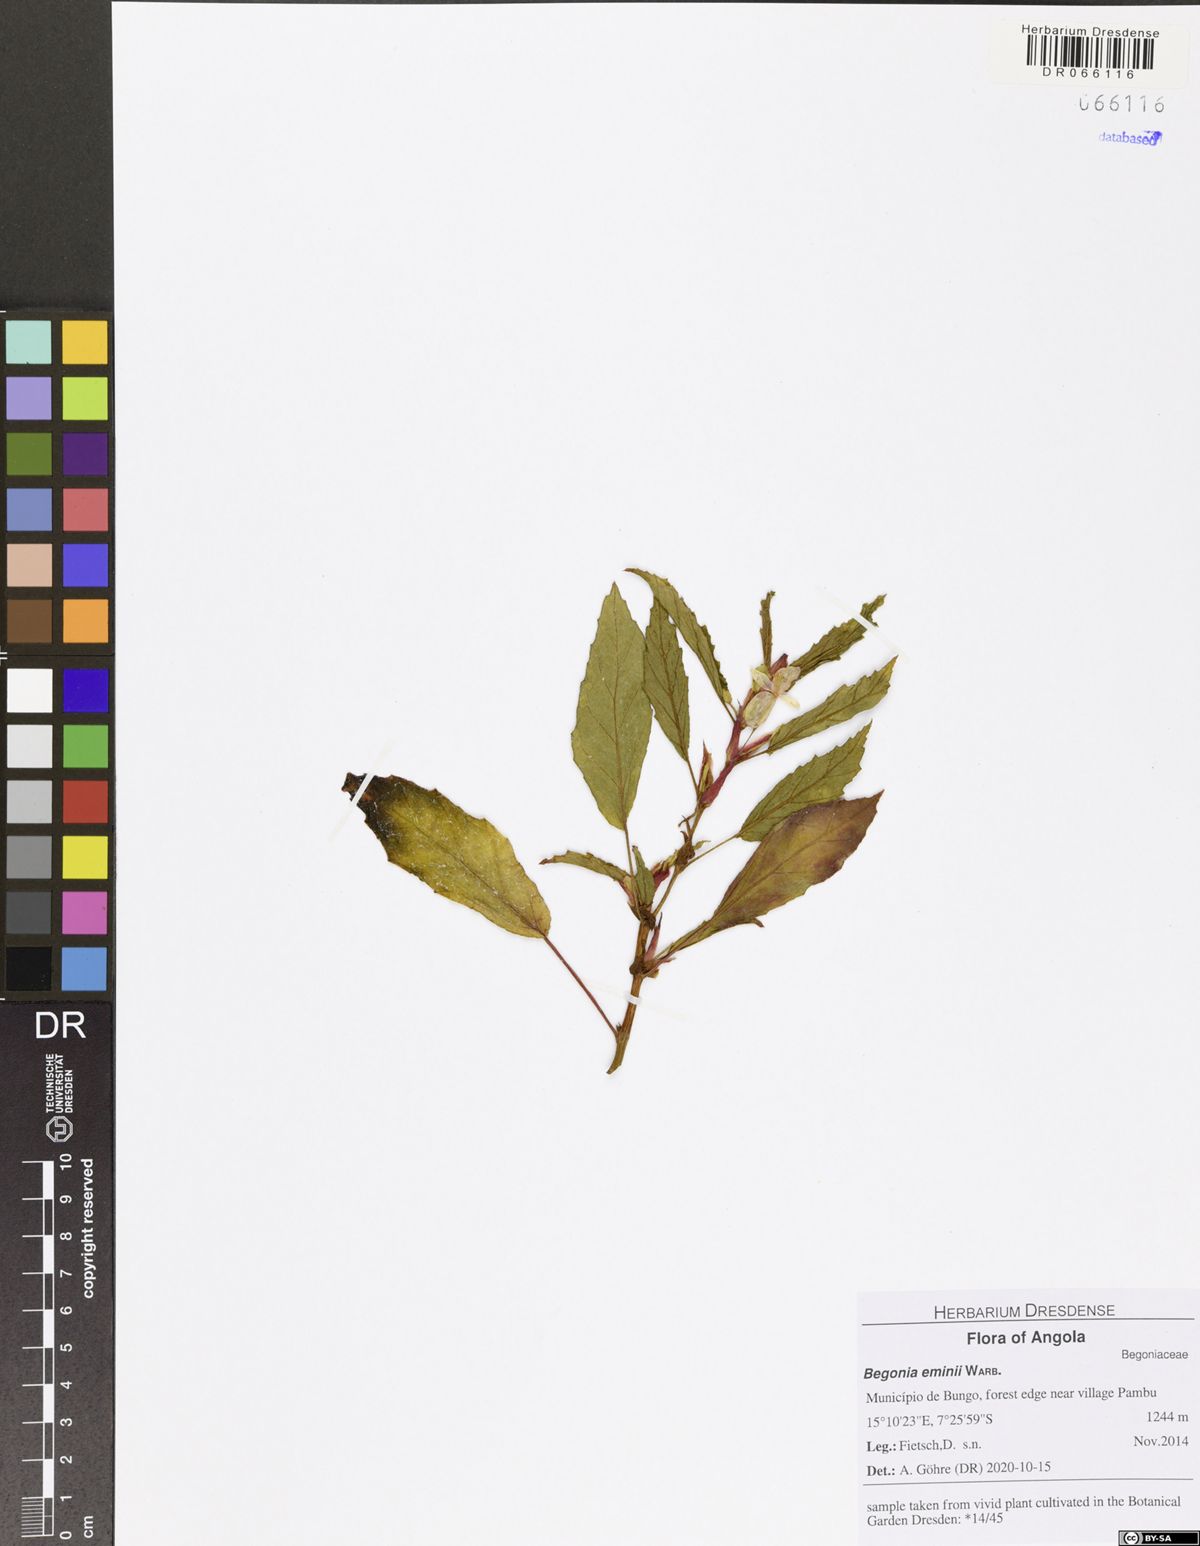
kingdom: Plantae
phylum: Tracheophyta
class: Magnoliopsida
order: Cucurbitales
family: Begoniaceae
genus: Begonia
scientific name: Begonia eminii
